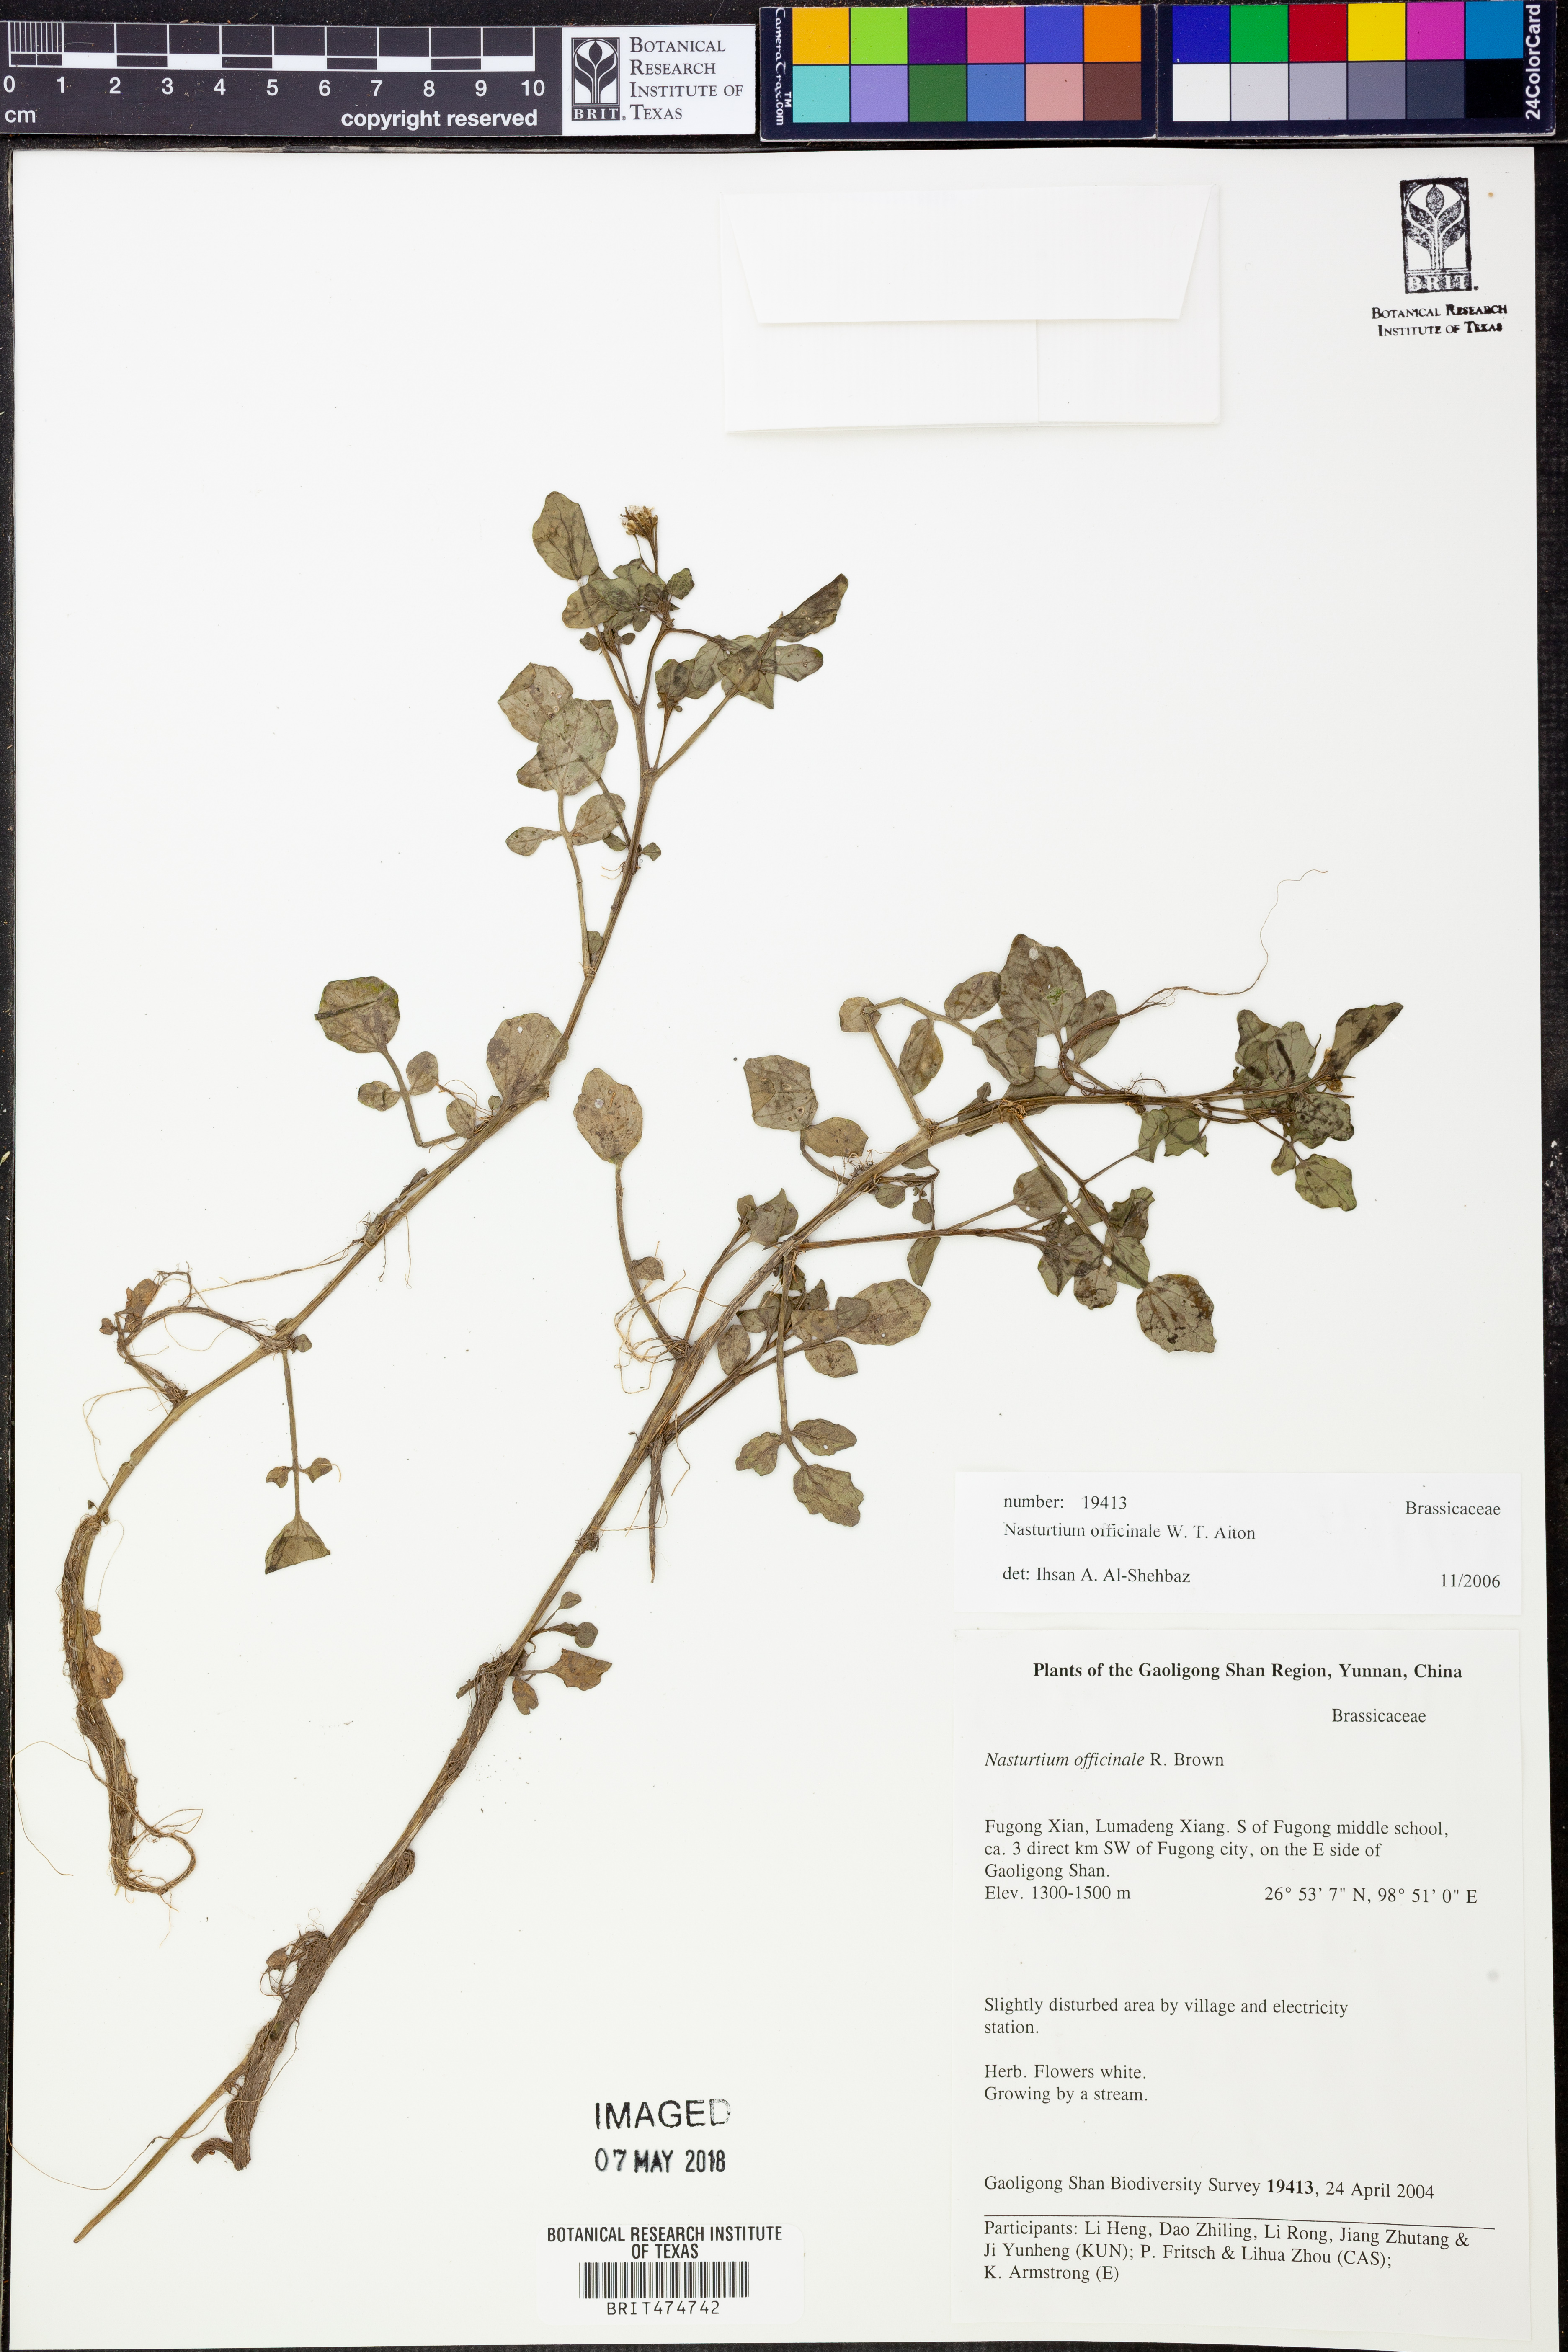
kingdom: Plantae
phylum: Tracheophyta
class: Magnoliopsida
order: Brassicales
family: Brassicaceae
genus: Nasturtium
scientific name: Nasturtium officinale
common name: Watercress
